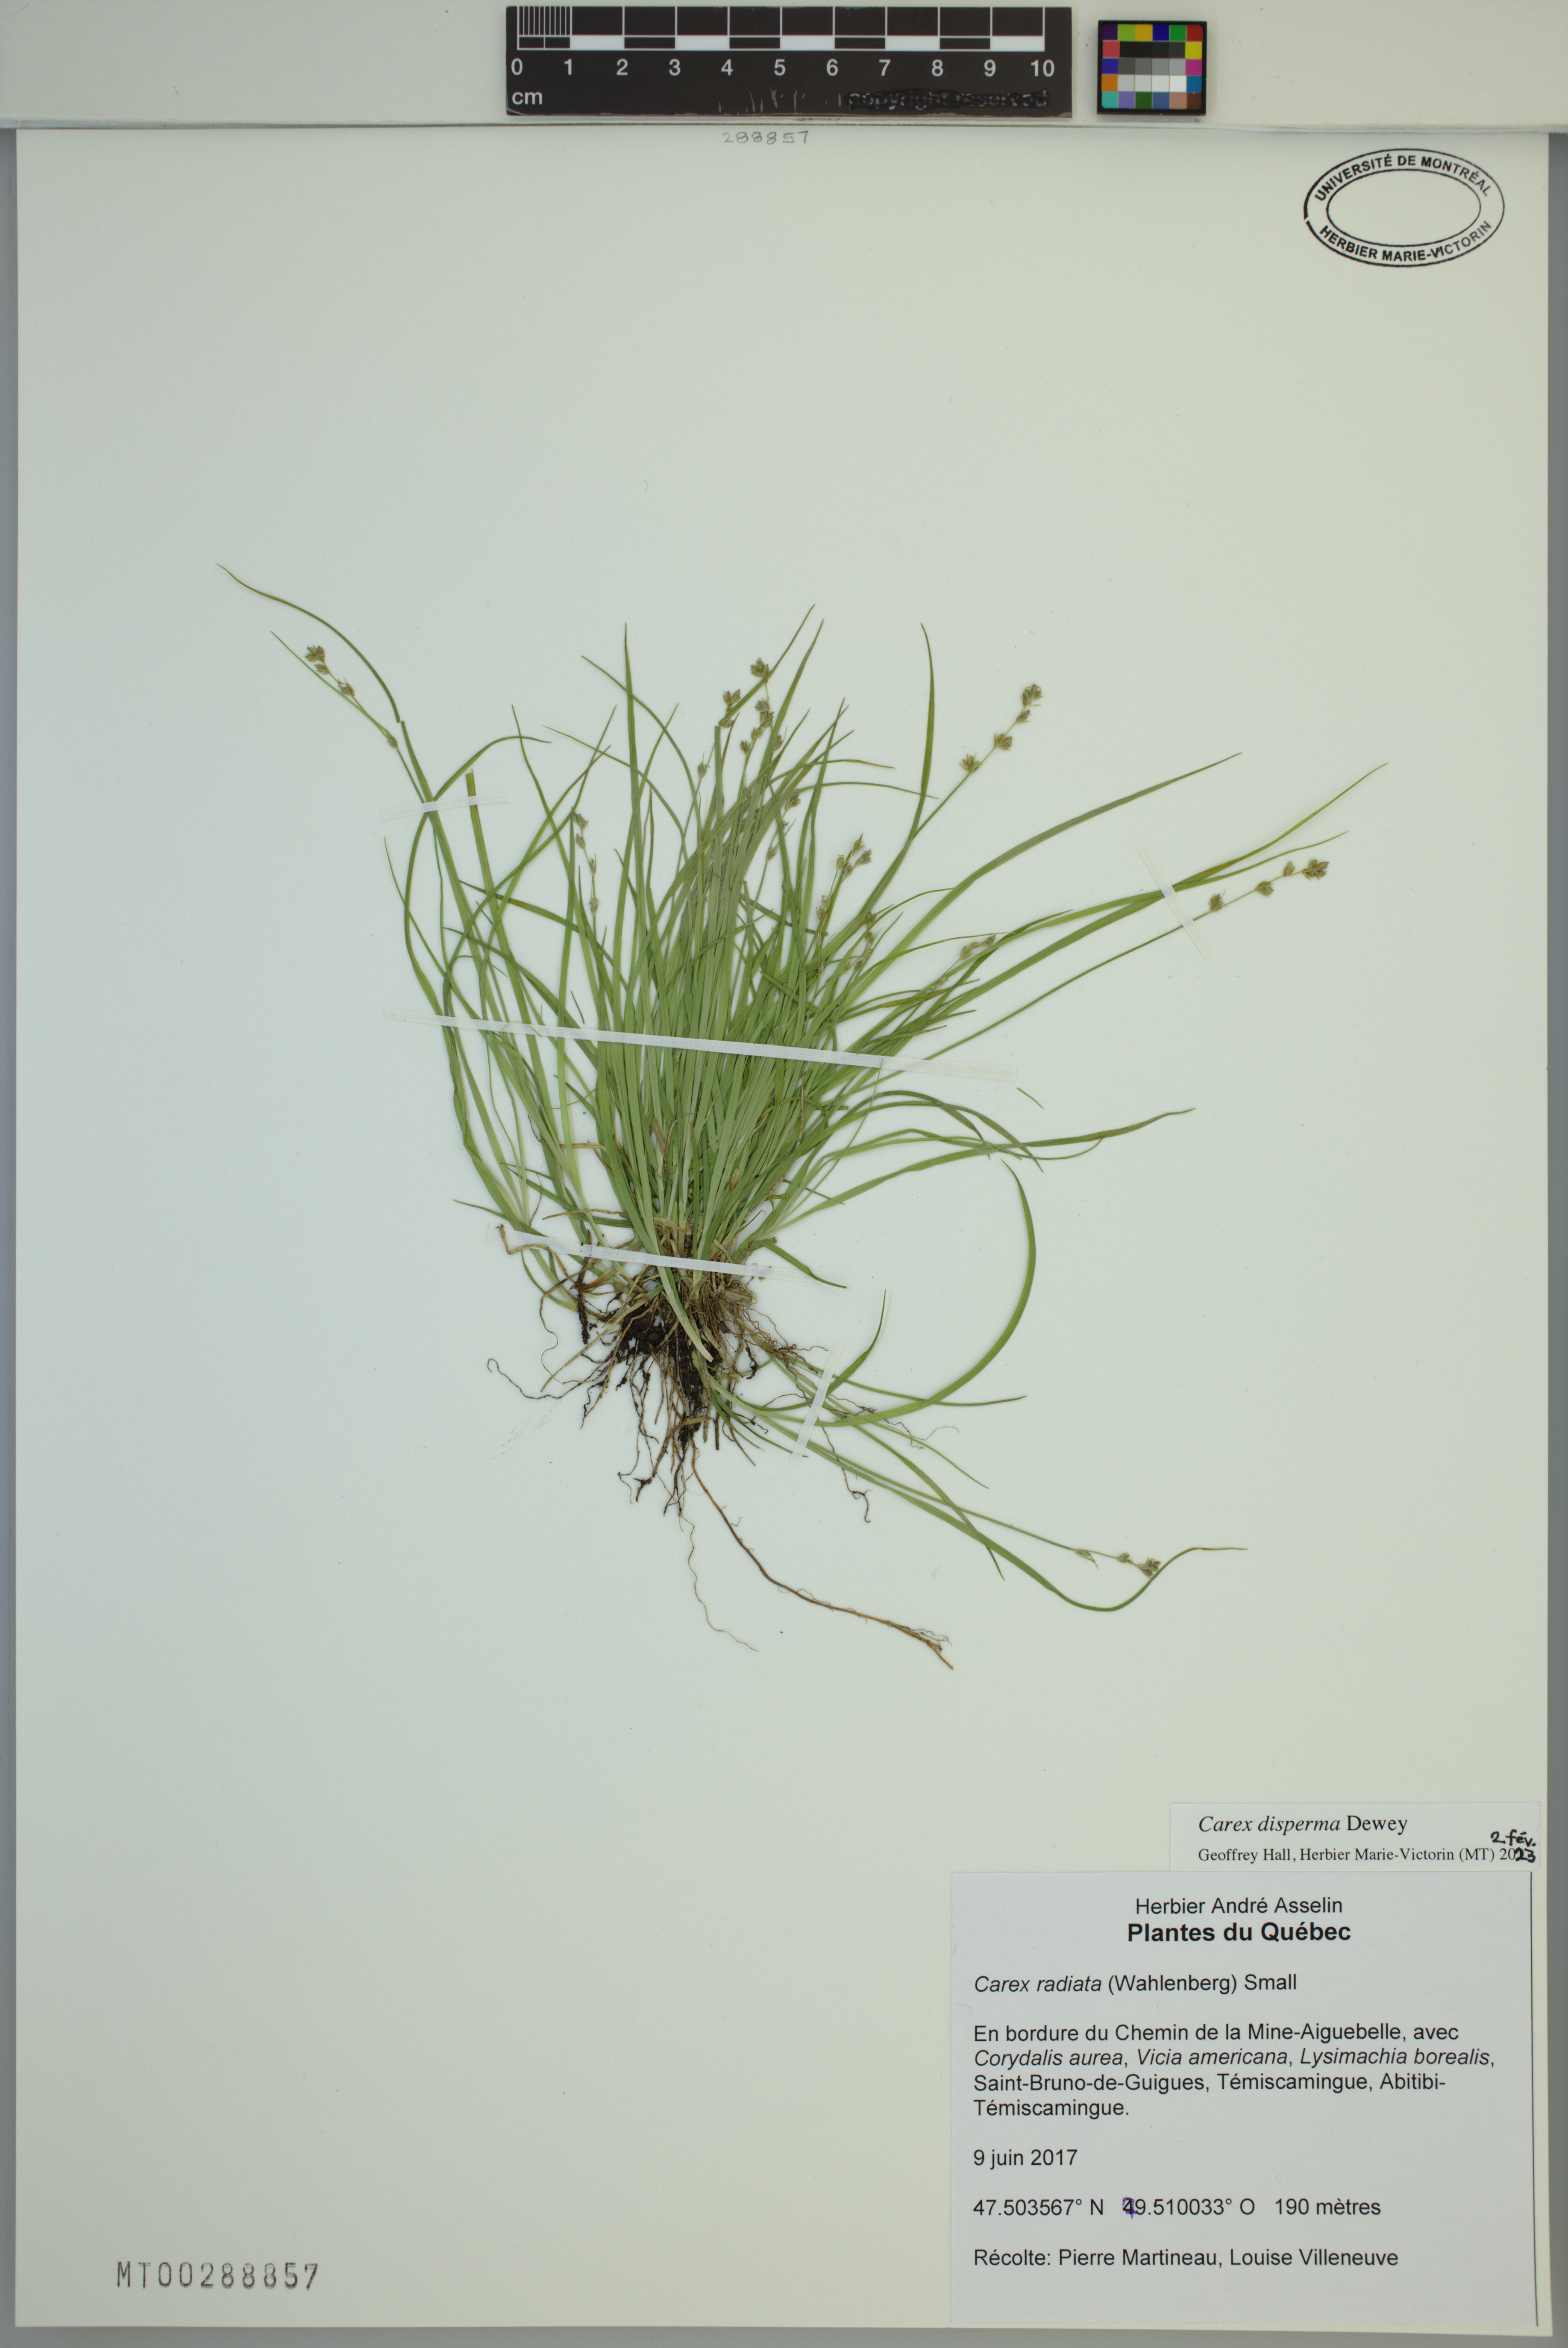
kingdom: Plantae
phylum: Tracheophyta
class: Liliopsida
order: Poales
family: Cyperaceae
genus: Carex
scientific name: Carex disperma
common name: Short-leaved sedge
